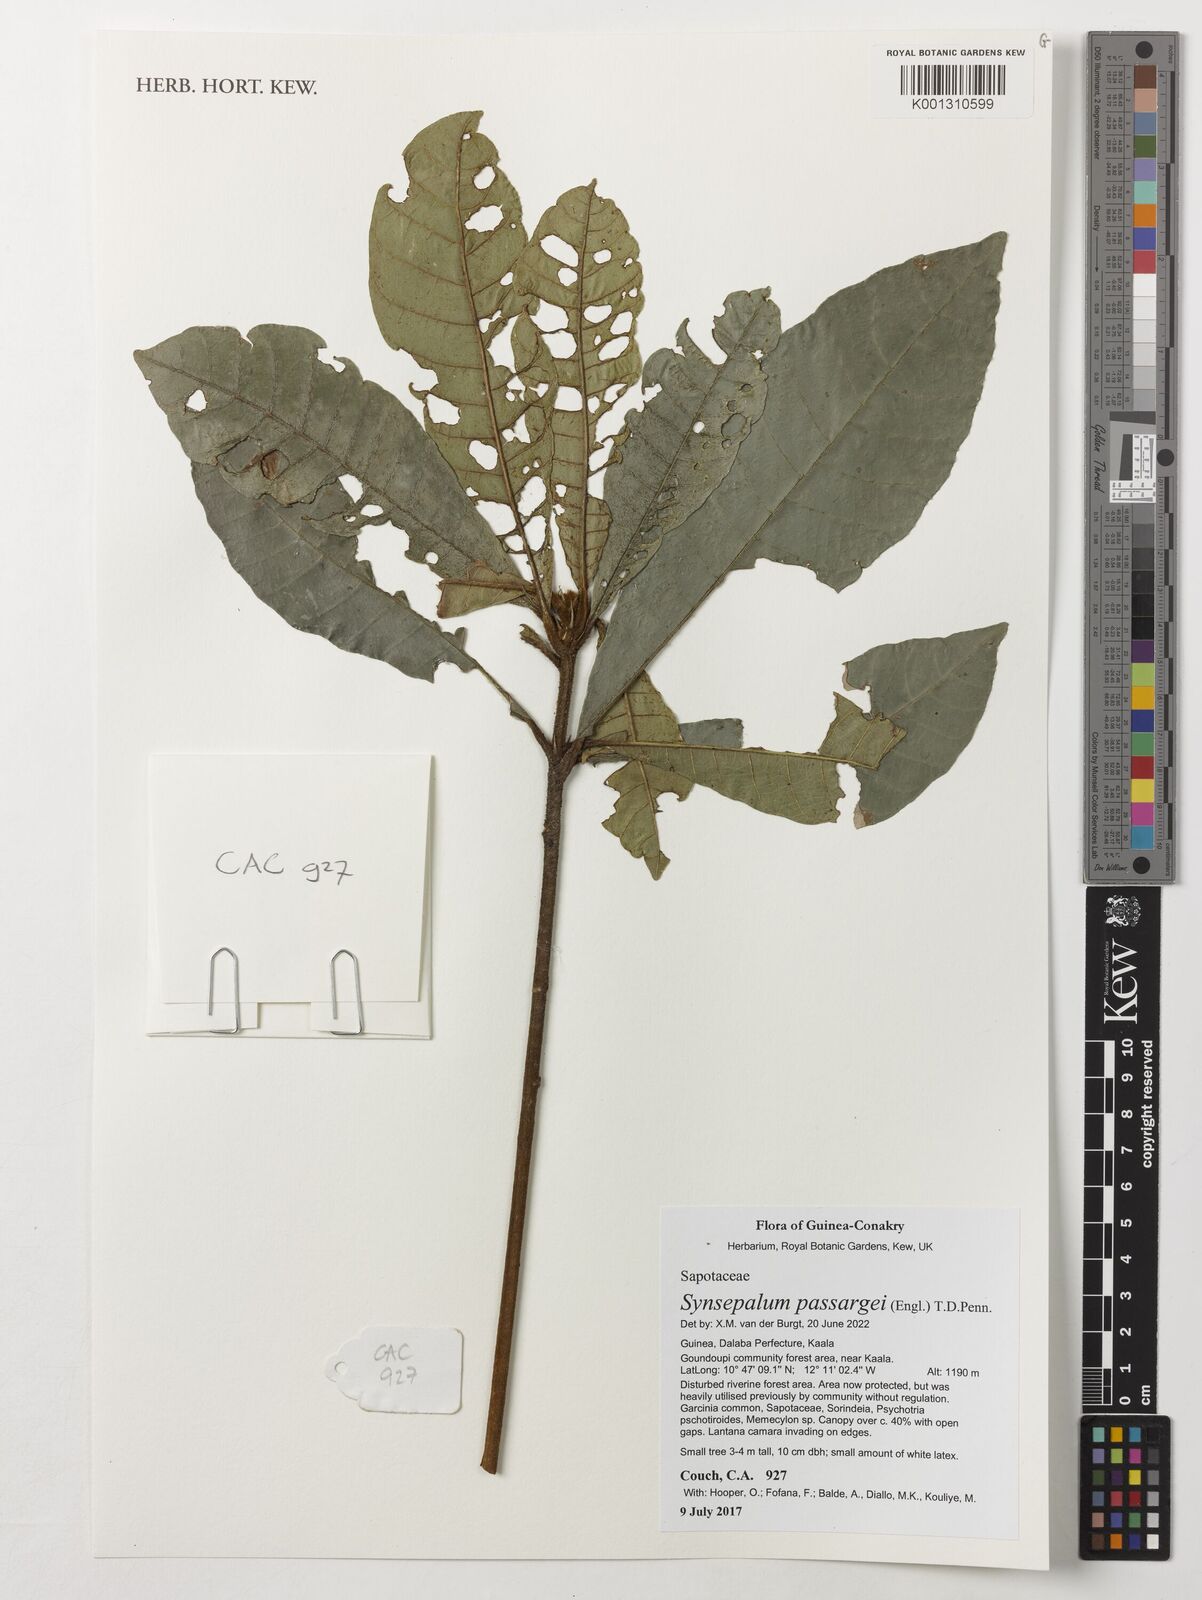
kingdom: Plantae
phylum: Tracheophyta
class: Magnoliopsida
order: Ericales
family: Sapotaceae
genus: Synsepalum
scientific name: Synsepalum passargei
